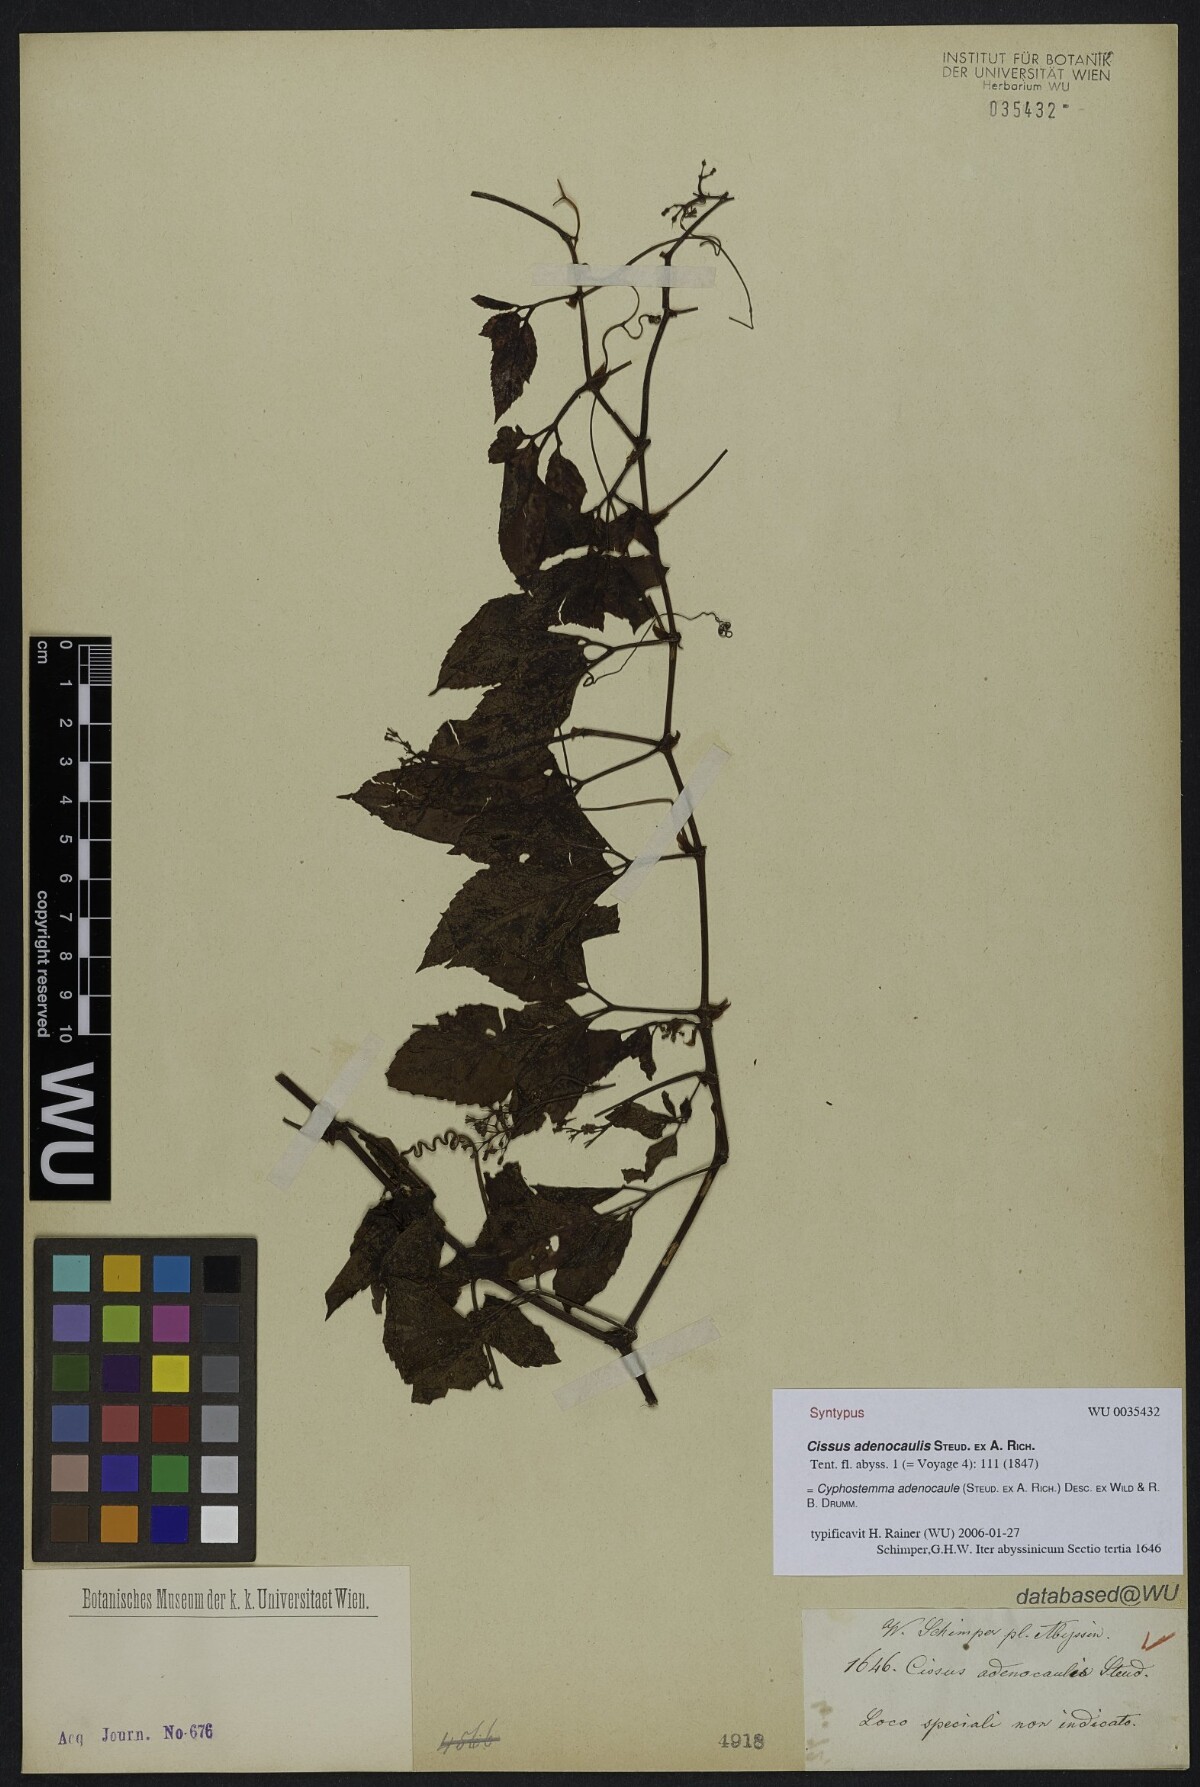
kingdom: Plantae
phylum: Tracheophyta
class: Magnoliopsida
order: Vitales
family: Vitaceae
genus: Cyphostemma
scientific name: Cyphostemma adenocaule
